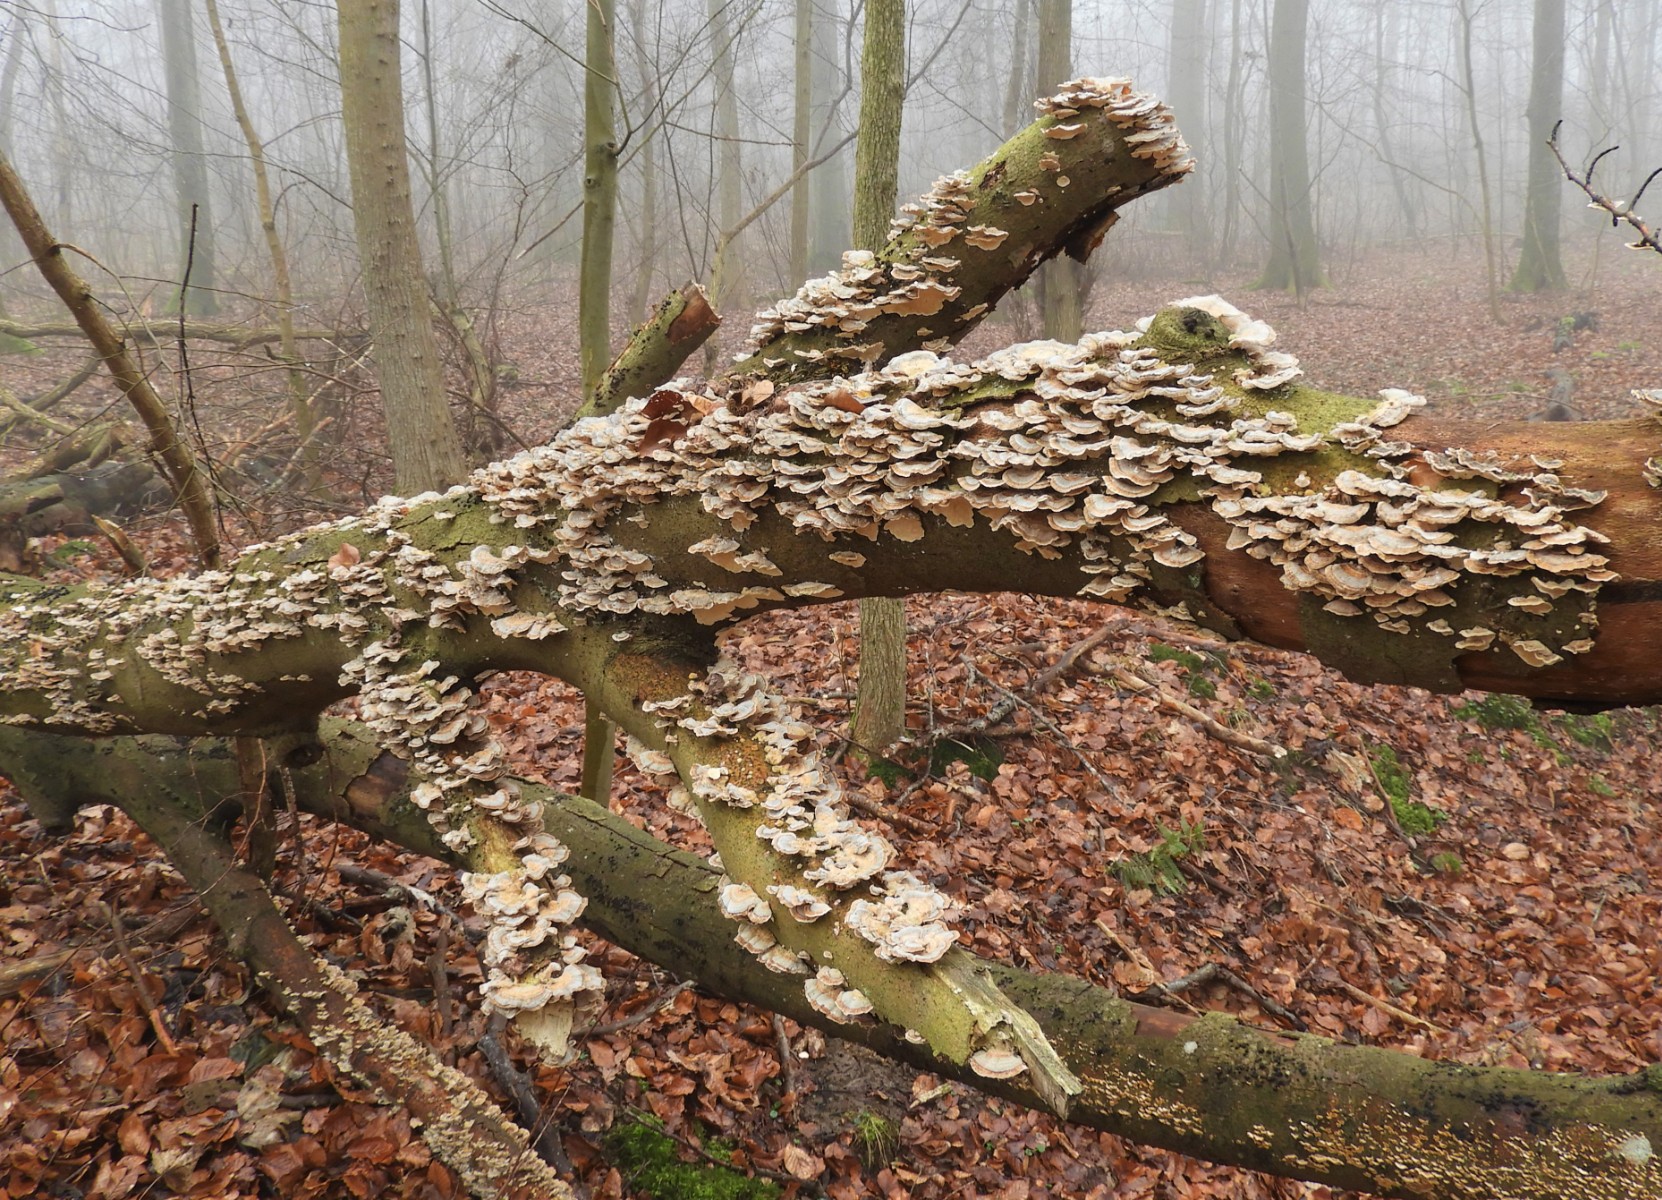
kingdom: Fungi
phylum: Basidiomycota
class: Agaricomycetes
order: Polyporales
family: Polyporaceae
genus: Trametes
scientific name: Trametes versicolor
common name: broget læderporesvamp
